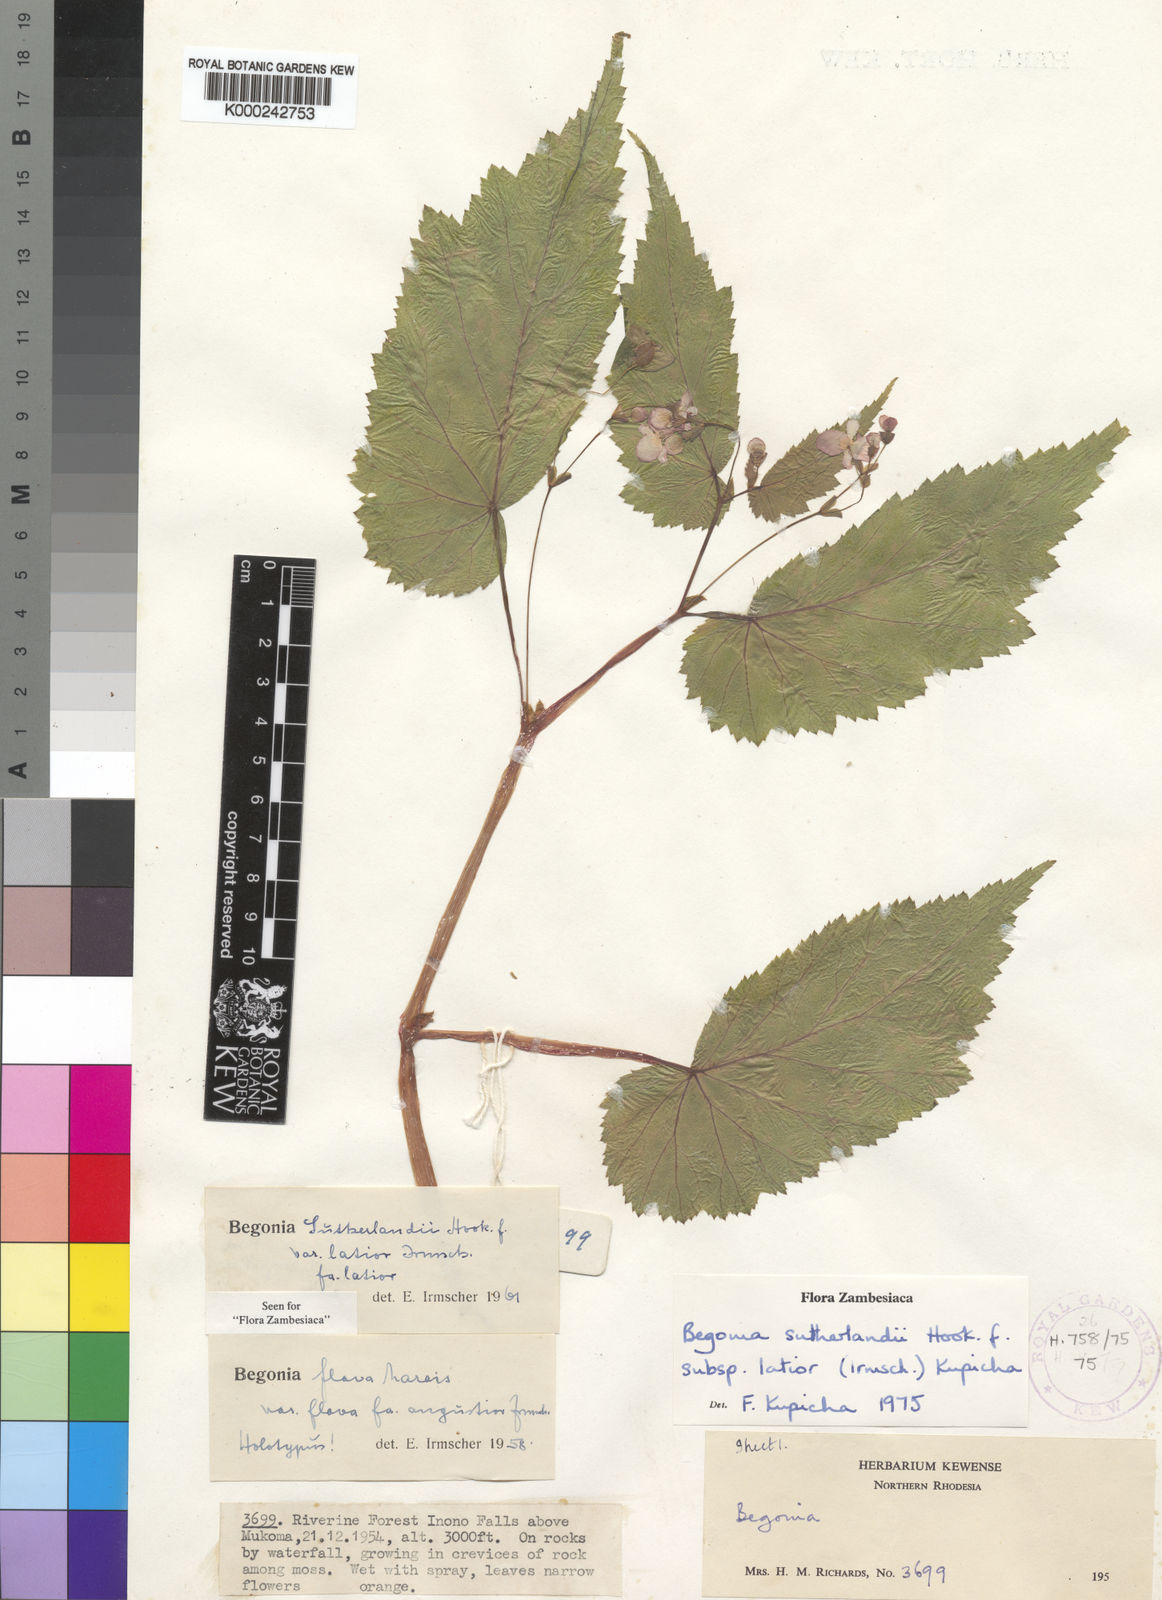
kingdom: Plantae
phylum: Tracheophyta
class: Magnoliopsida
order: Cucurbitales
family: Begoniaceae
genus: Begonia
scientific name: Begonia sutherlandii
